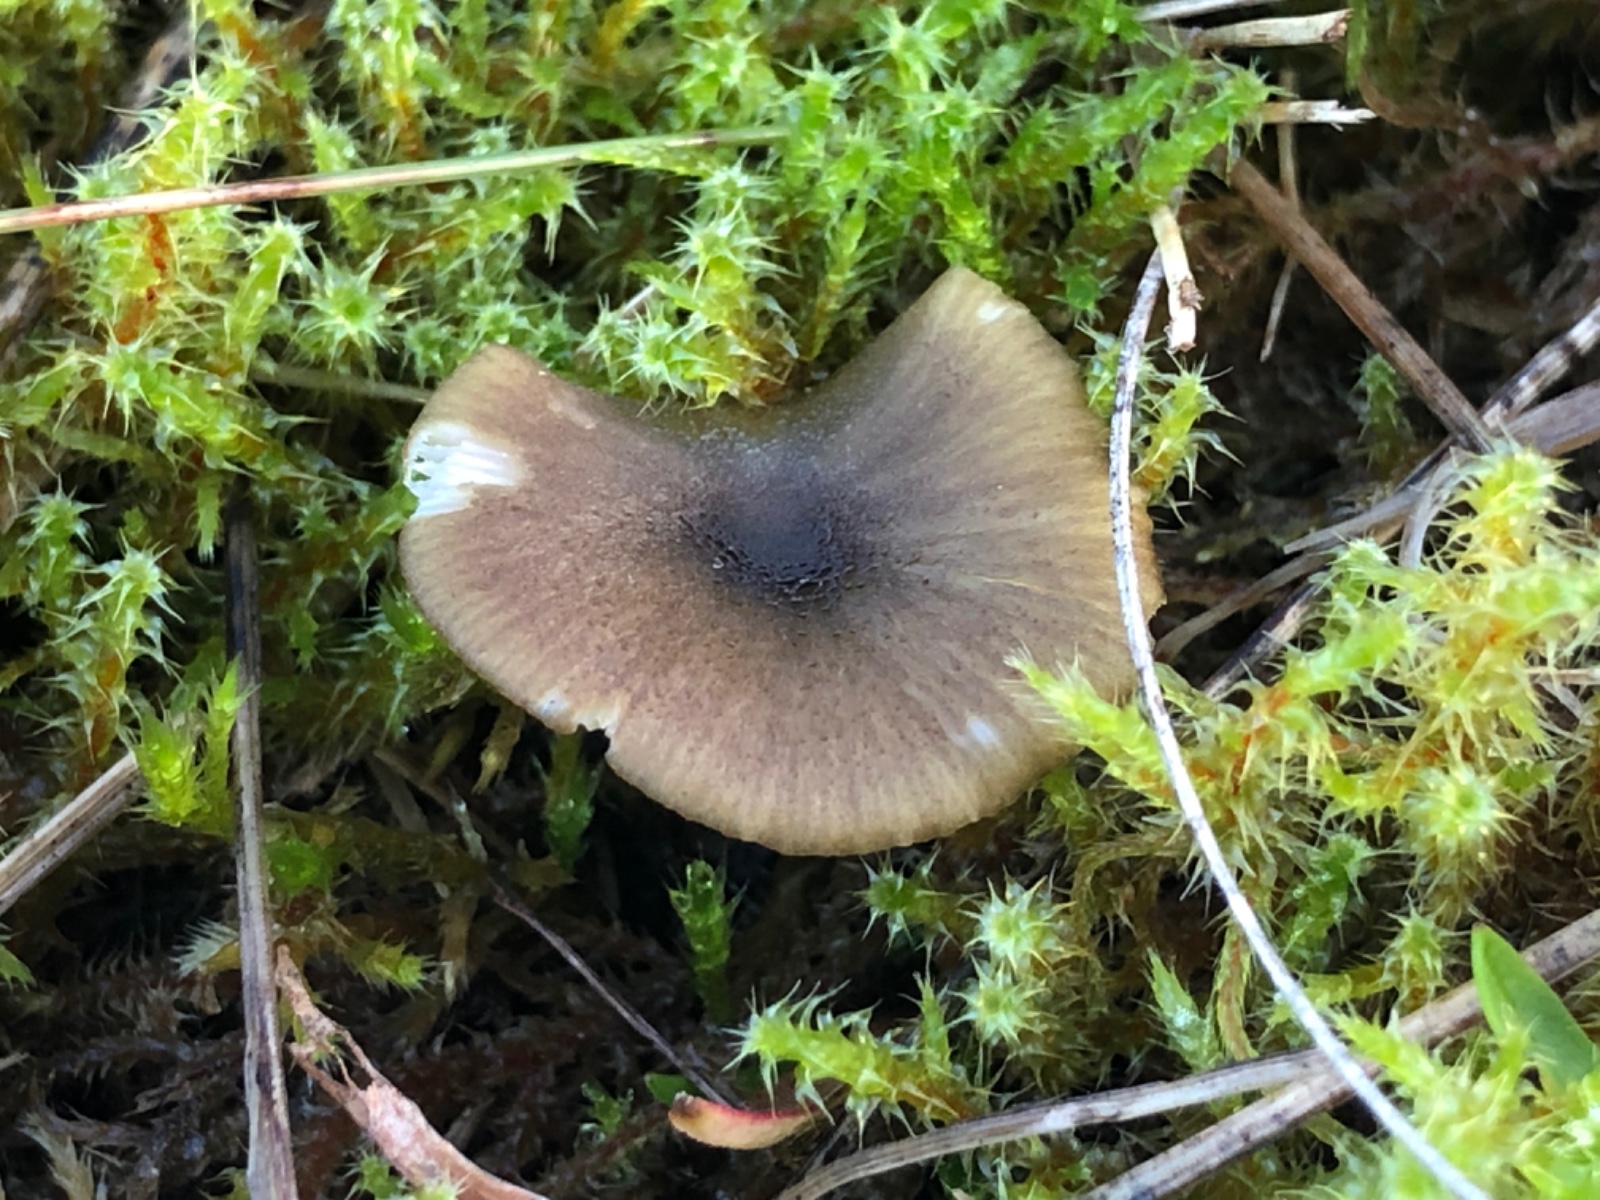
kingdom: Fungi
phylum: Basidiomycota
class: Agaricomycetes
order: Agaricales
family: Entolomataceae
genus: Entoloma
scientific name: Entoloma incanum
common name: grøngul rødblad
